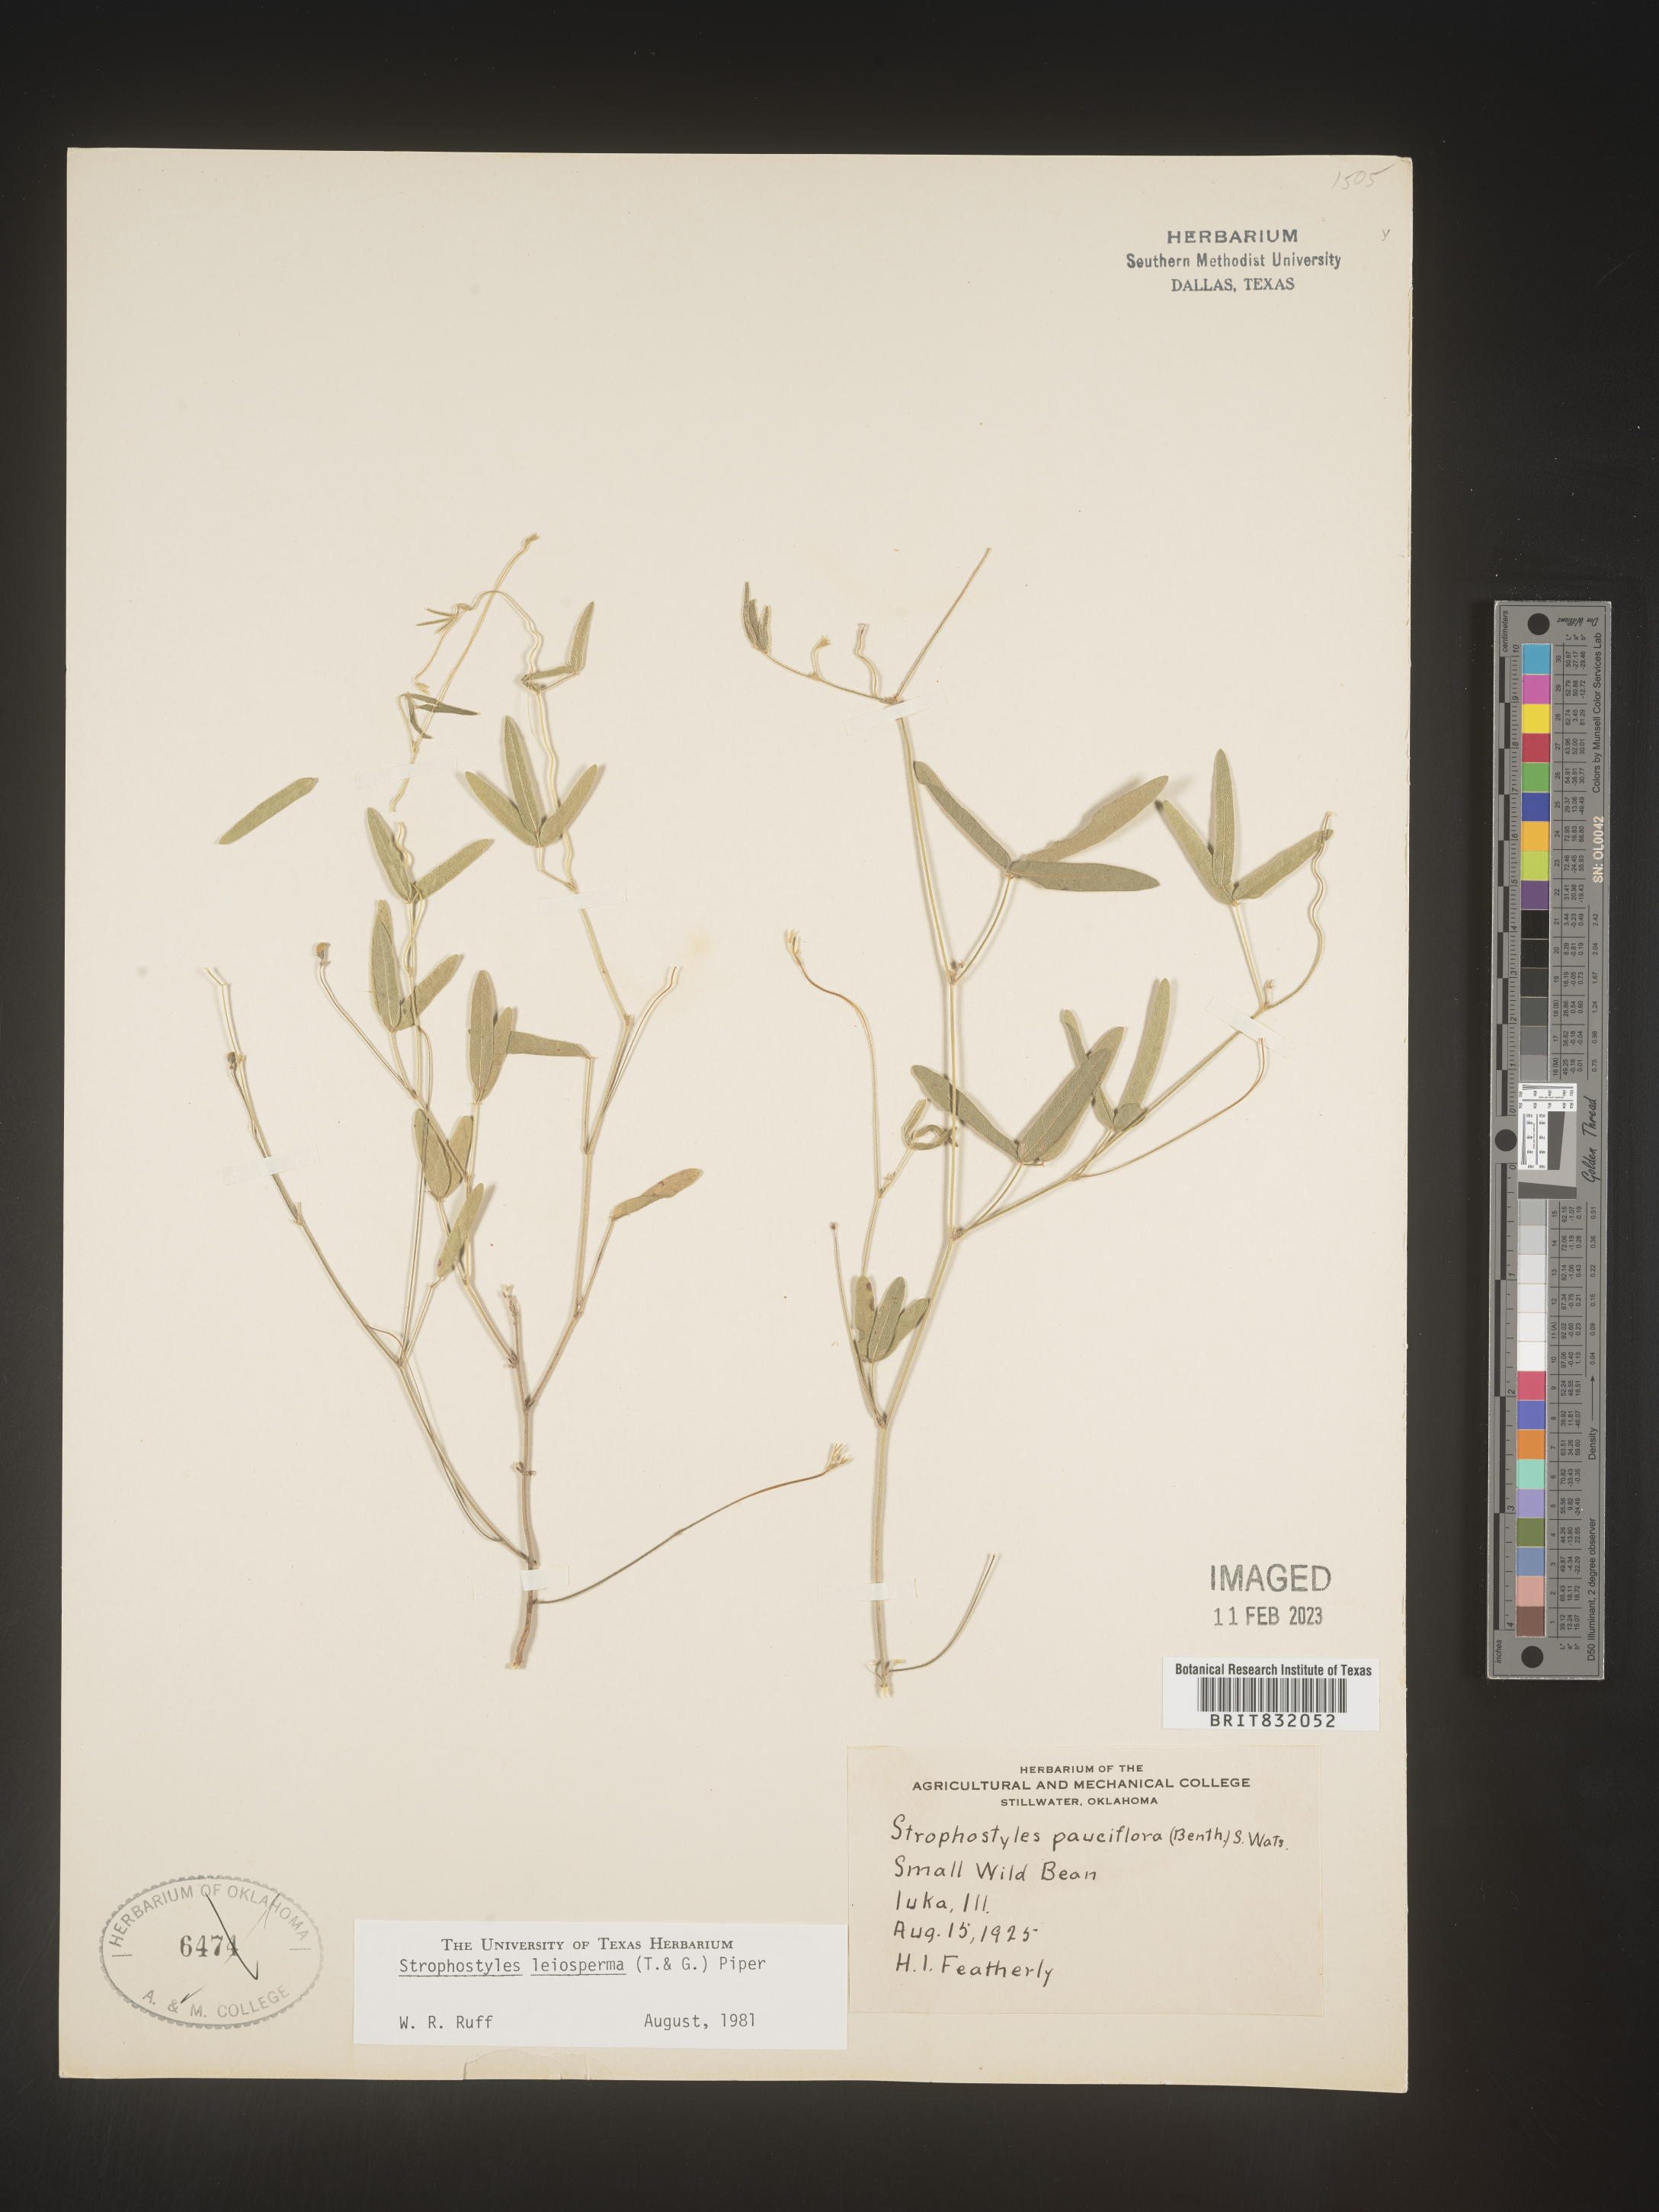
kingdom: Plantae
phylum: Tracheophyta
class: Magnoliopsida
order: Fabales
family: Fabaceae
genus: Strophostyles
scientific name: Strophostyles leiosperma
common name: Smooth-seed wild bean
